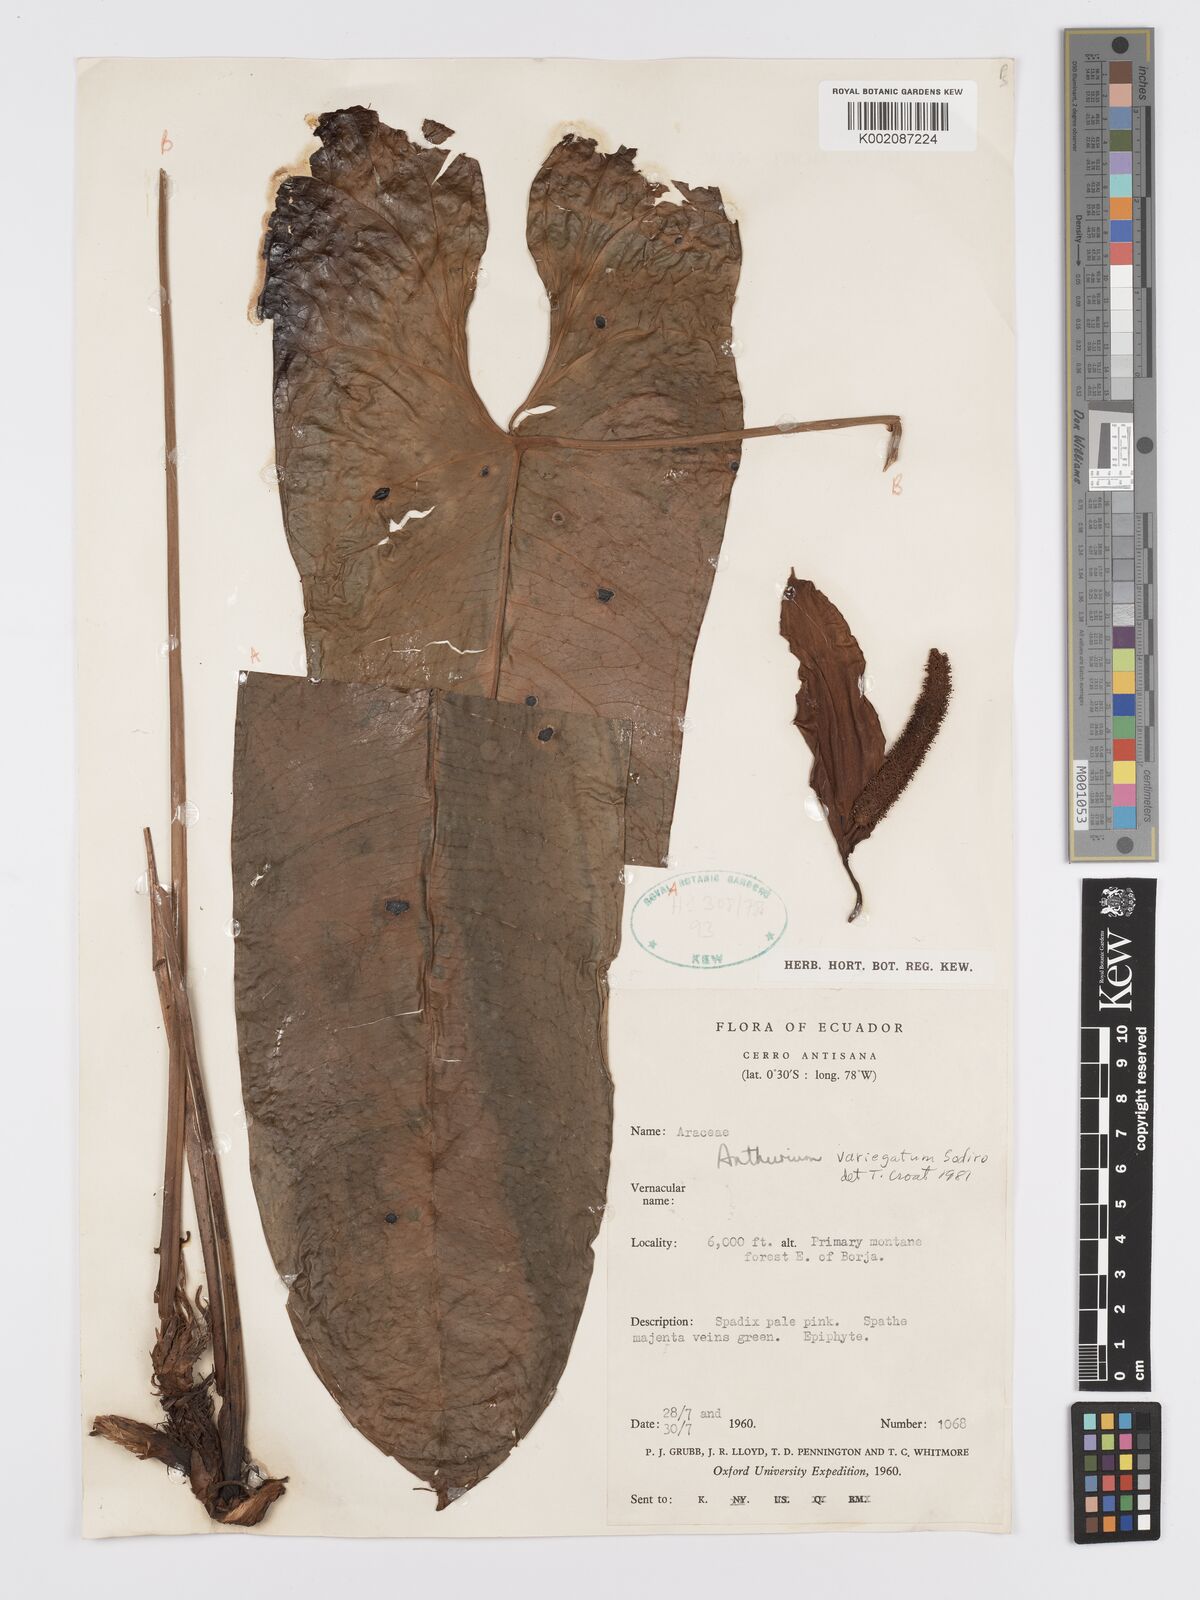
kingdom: Plantae
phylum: Tracheophyta
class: Liliopsida
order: Alismatales
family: Araceae
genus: Anthurium
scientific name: Anthurium variegatum
